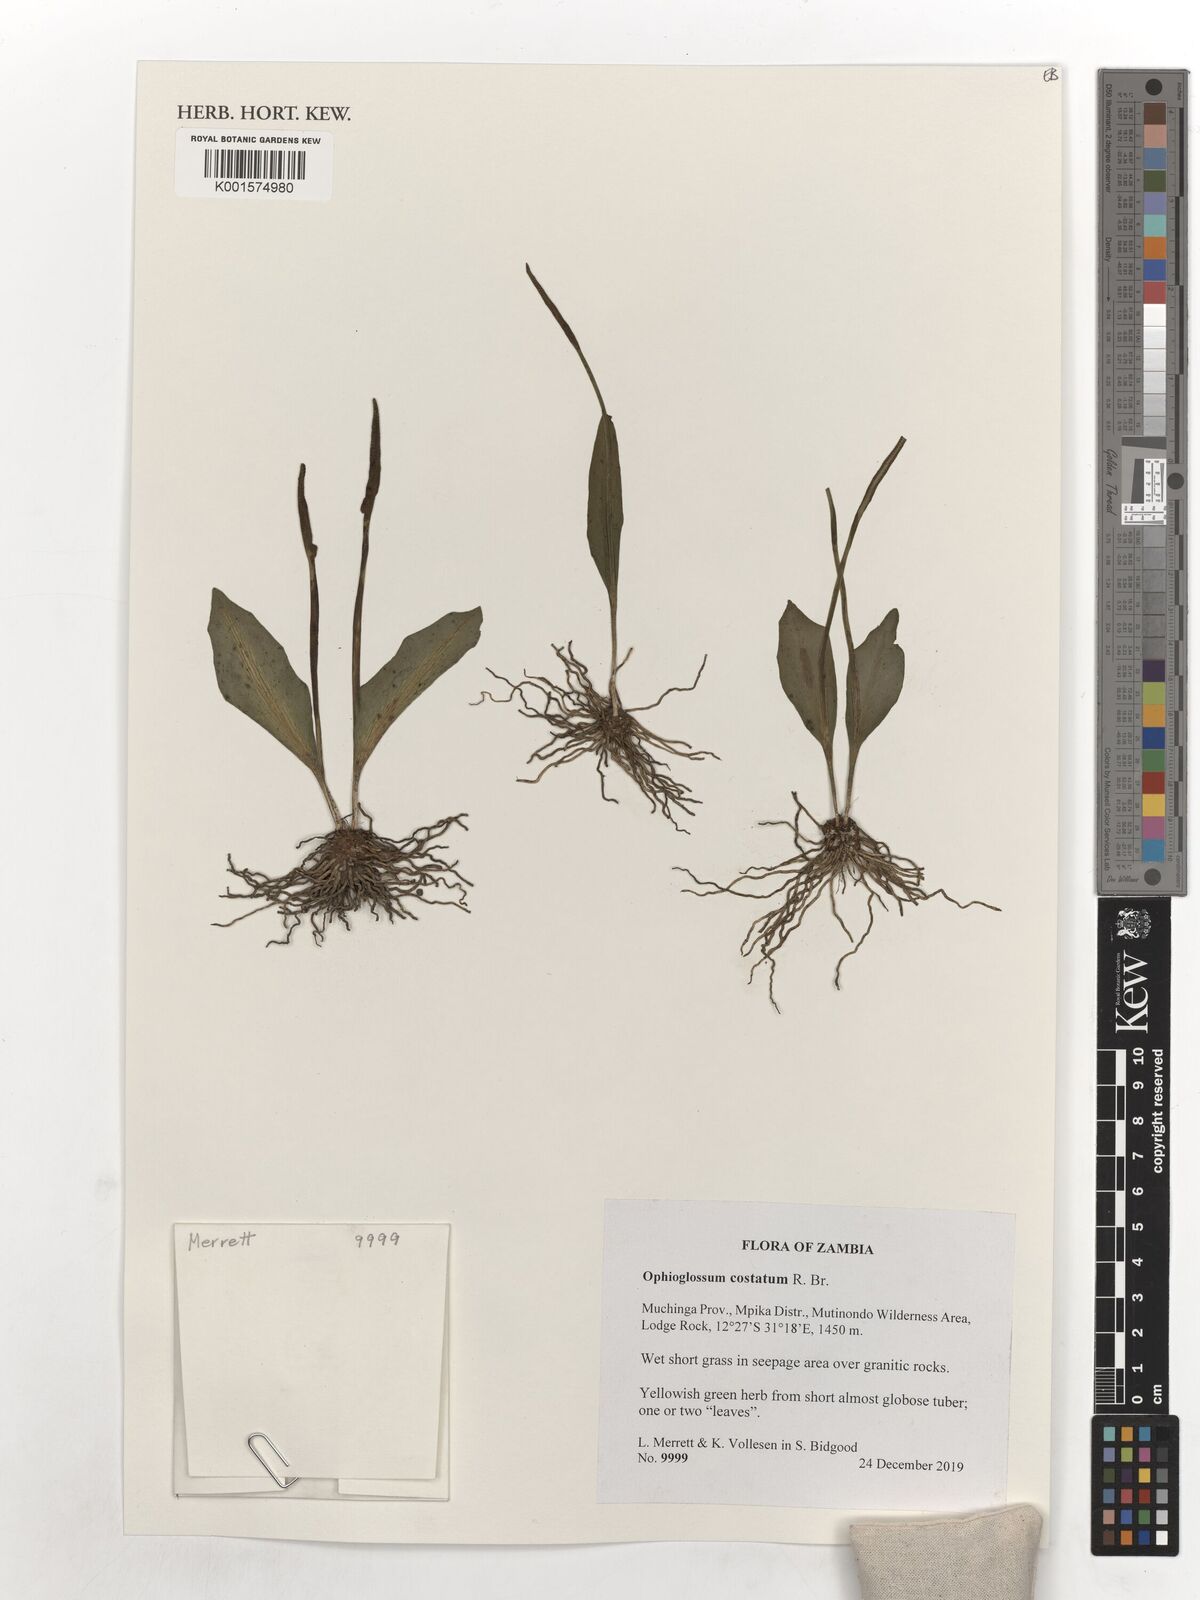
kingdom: Plantae
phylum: Tracheophyta
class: Polypodiopsida
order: Ophioglossales
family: Ophioglossaceae
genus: Ophioglossum
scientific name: Ophioglossum costatum
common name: Large adder's tongue
